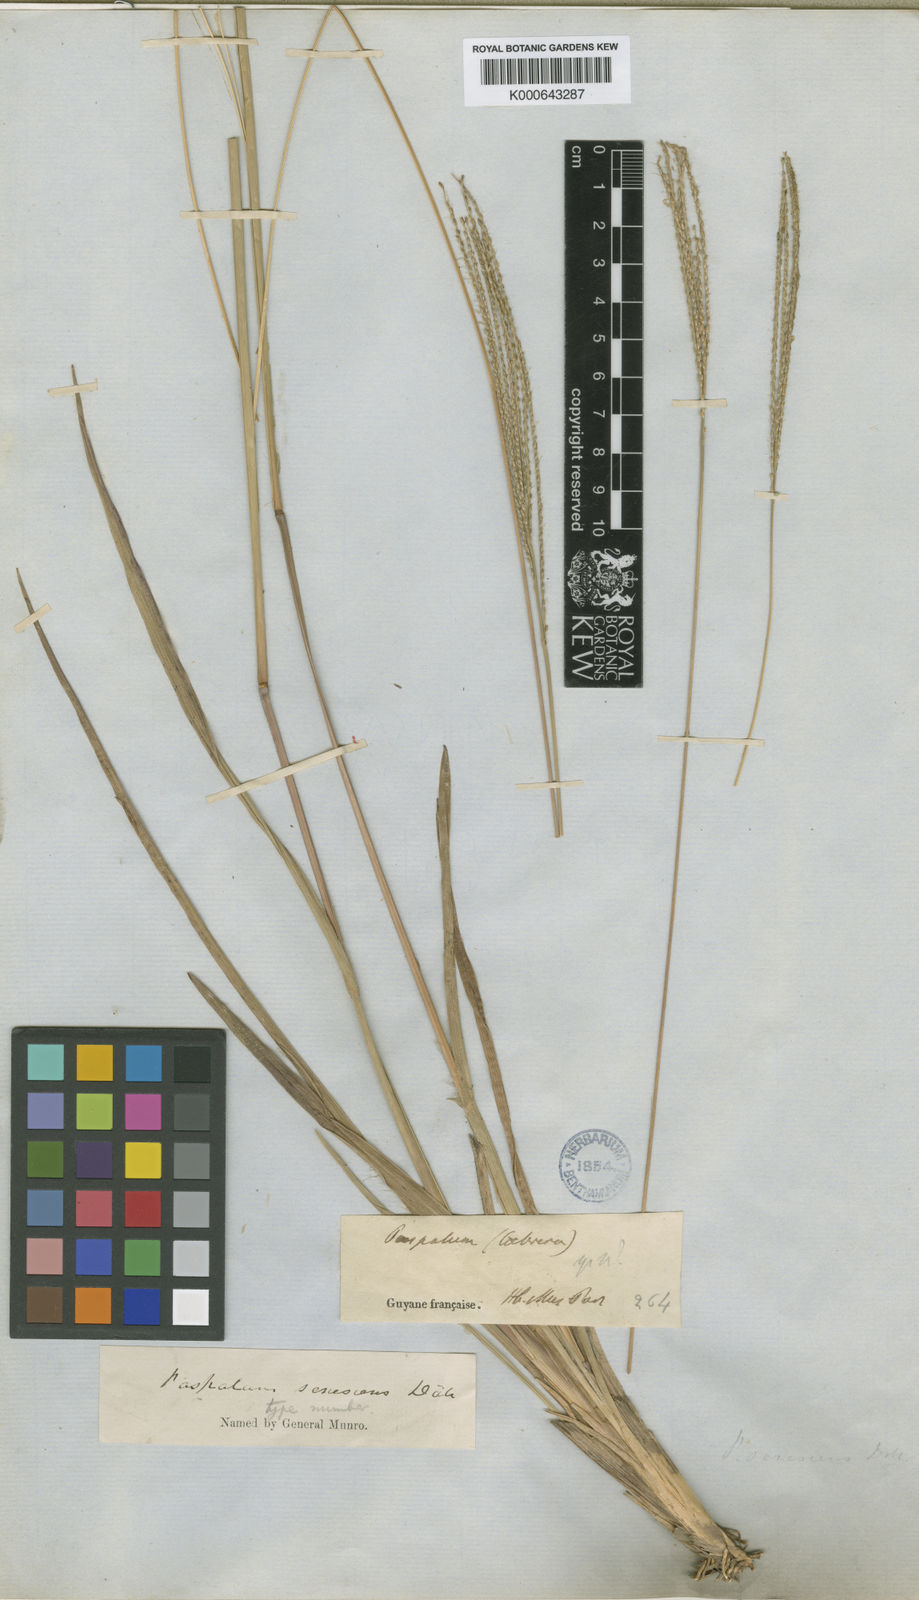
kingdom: Plantae
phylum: Tracheophyta
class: Liliopsida
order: Poales
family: Poaceae
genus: Axonopus
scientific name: Axonopus
